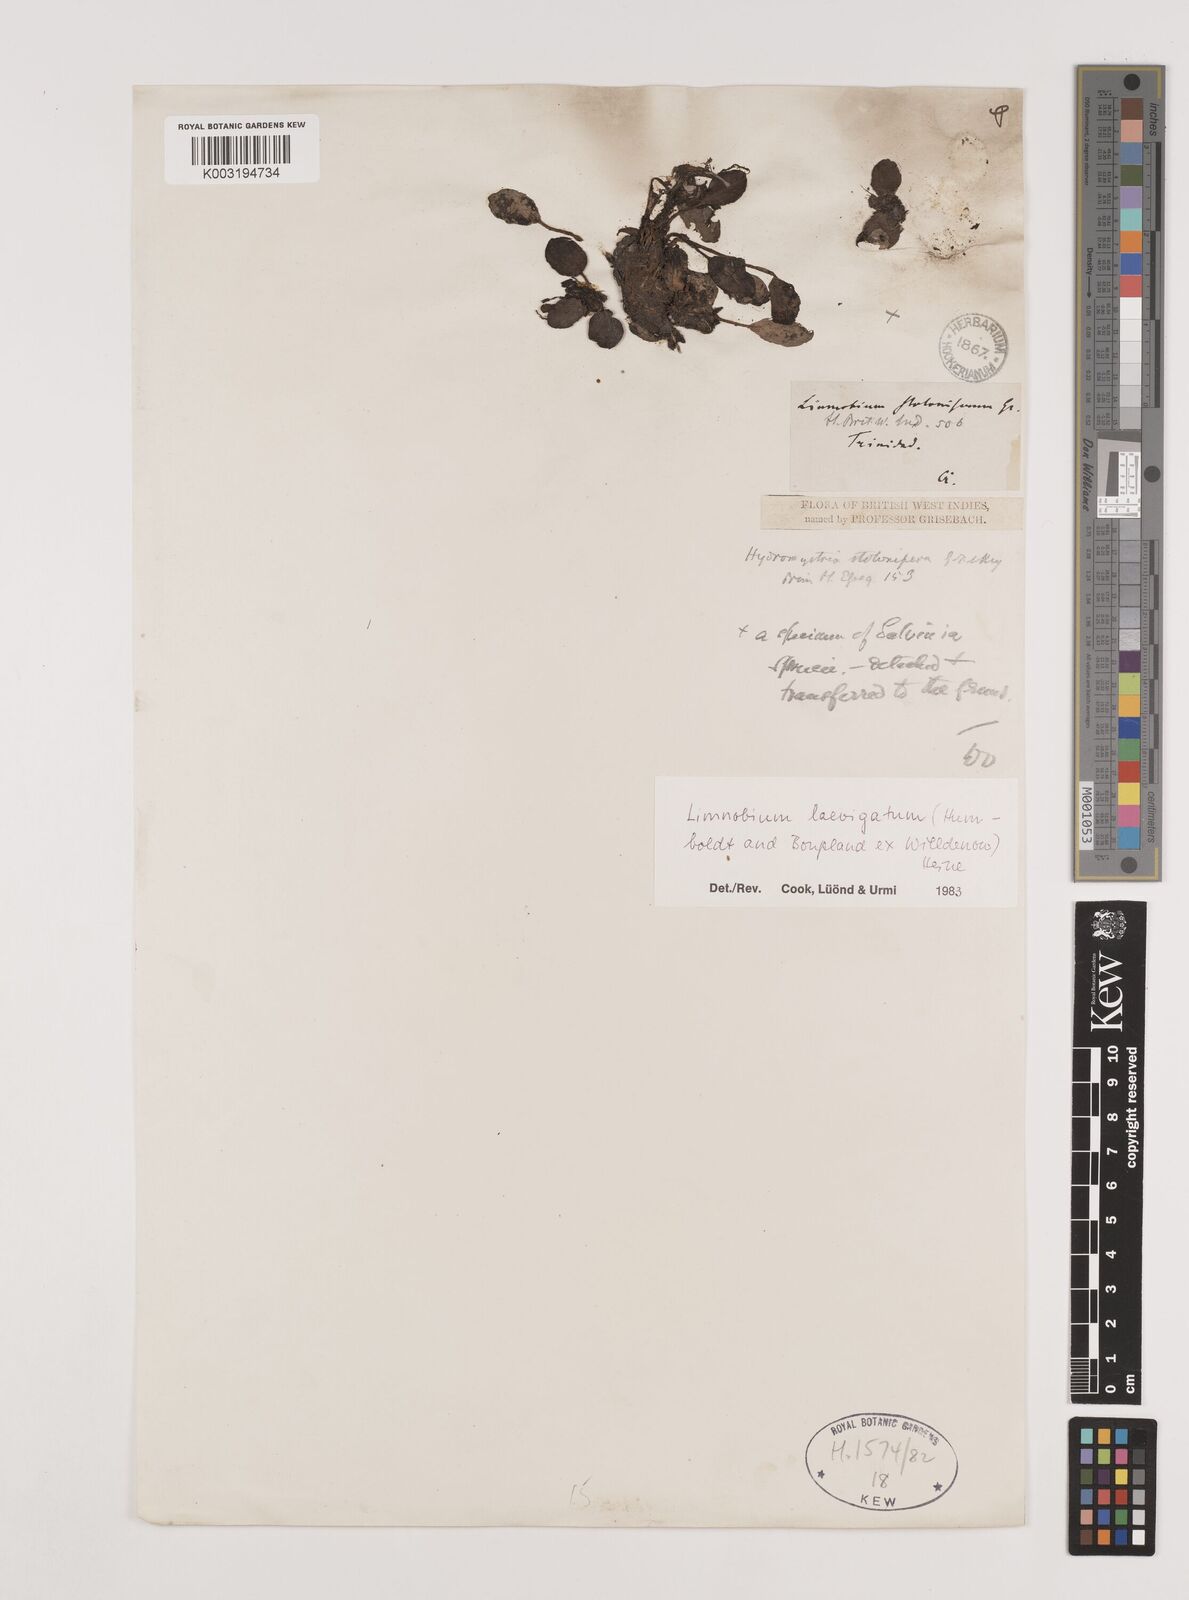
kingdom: Plantae
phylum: Tracheophyta
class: Liliopsida
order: Alismatales
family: Hydrocharitaceae
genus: Hydrocharis
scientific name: Hydrocharis laevigata
